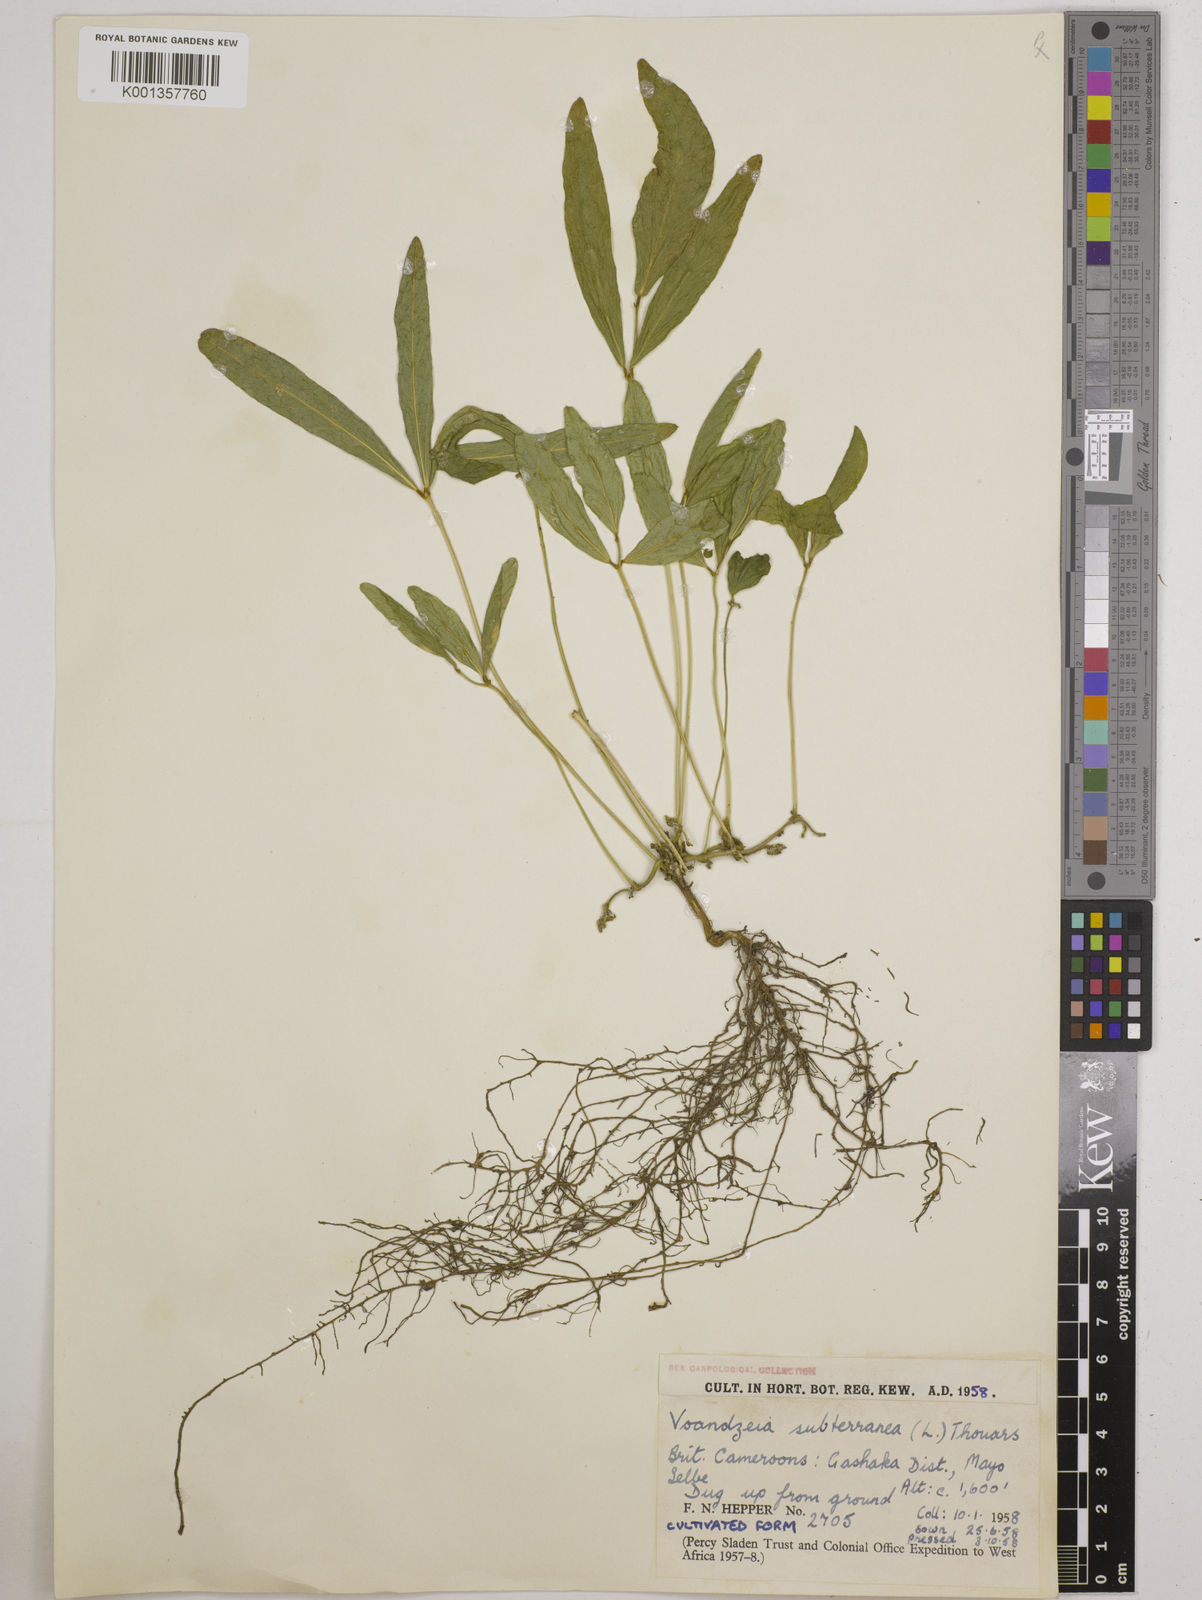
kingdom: Plantae
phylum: Tracheophyta
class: Magnoliopsida
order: Fabales
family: Fabaceae
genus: Vigna
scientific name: Vigna subterranea
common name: Bambara groundnut
